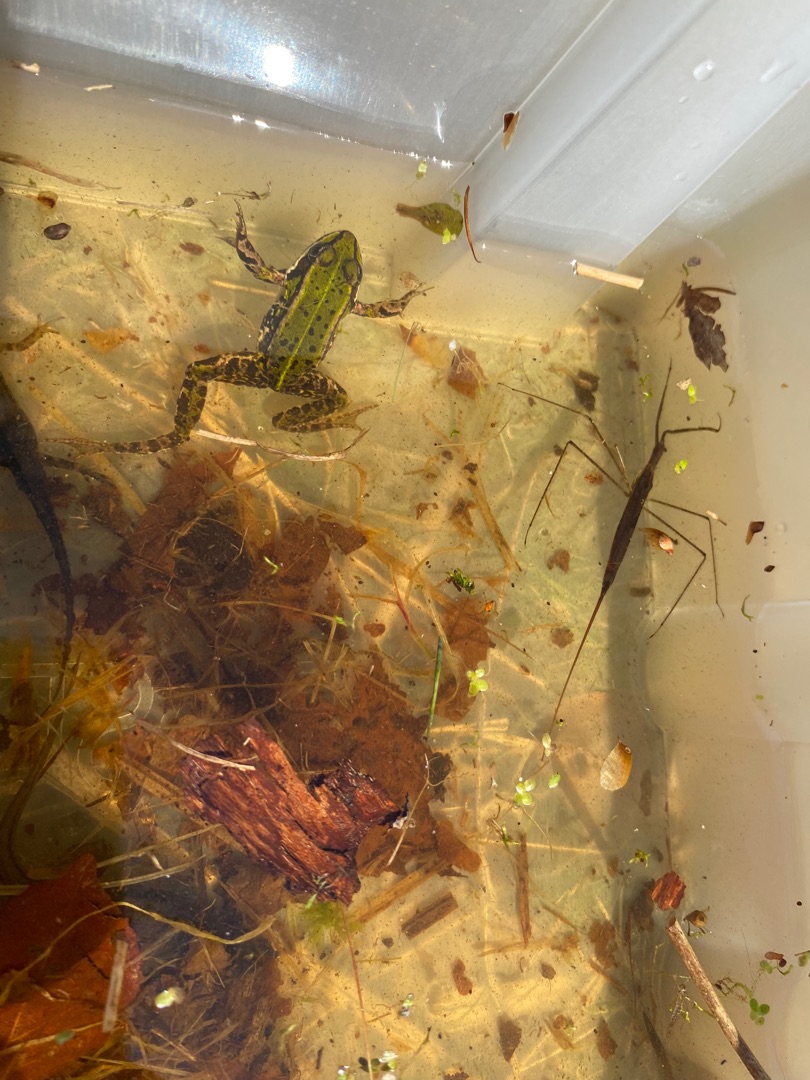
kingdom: Animalia
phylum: Arthropoda
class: Insecta
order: Hemiptera
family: Nepidae
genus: Ranatra
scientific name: Ranatra linearis
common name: Stavtæge
